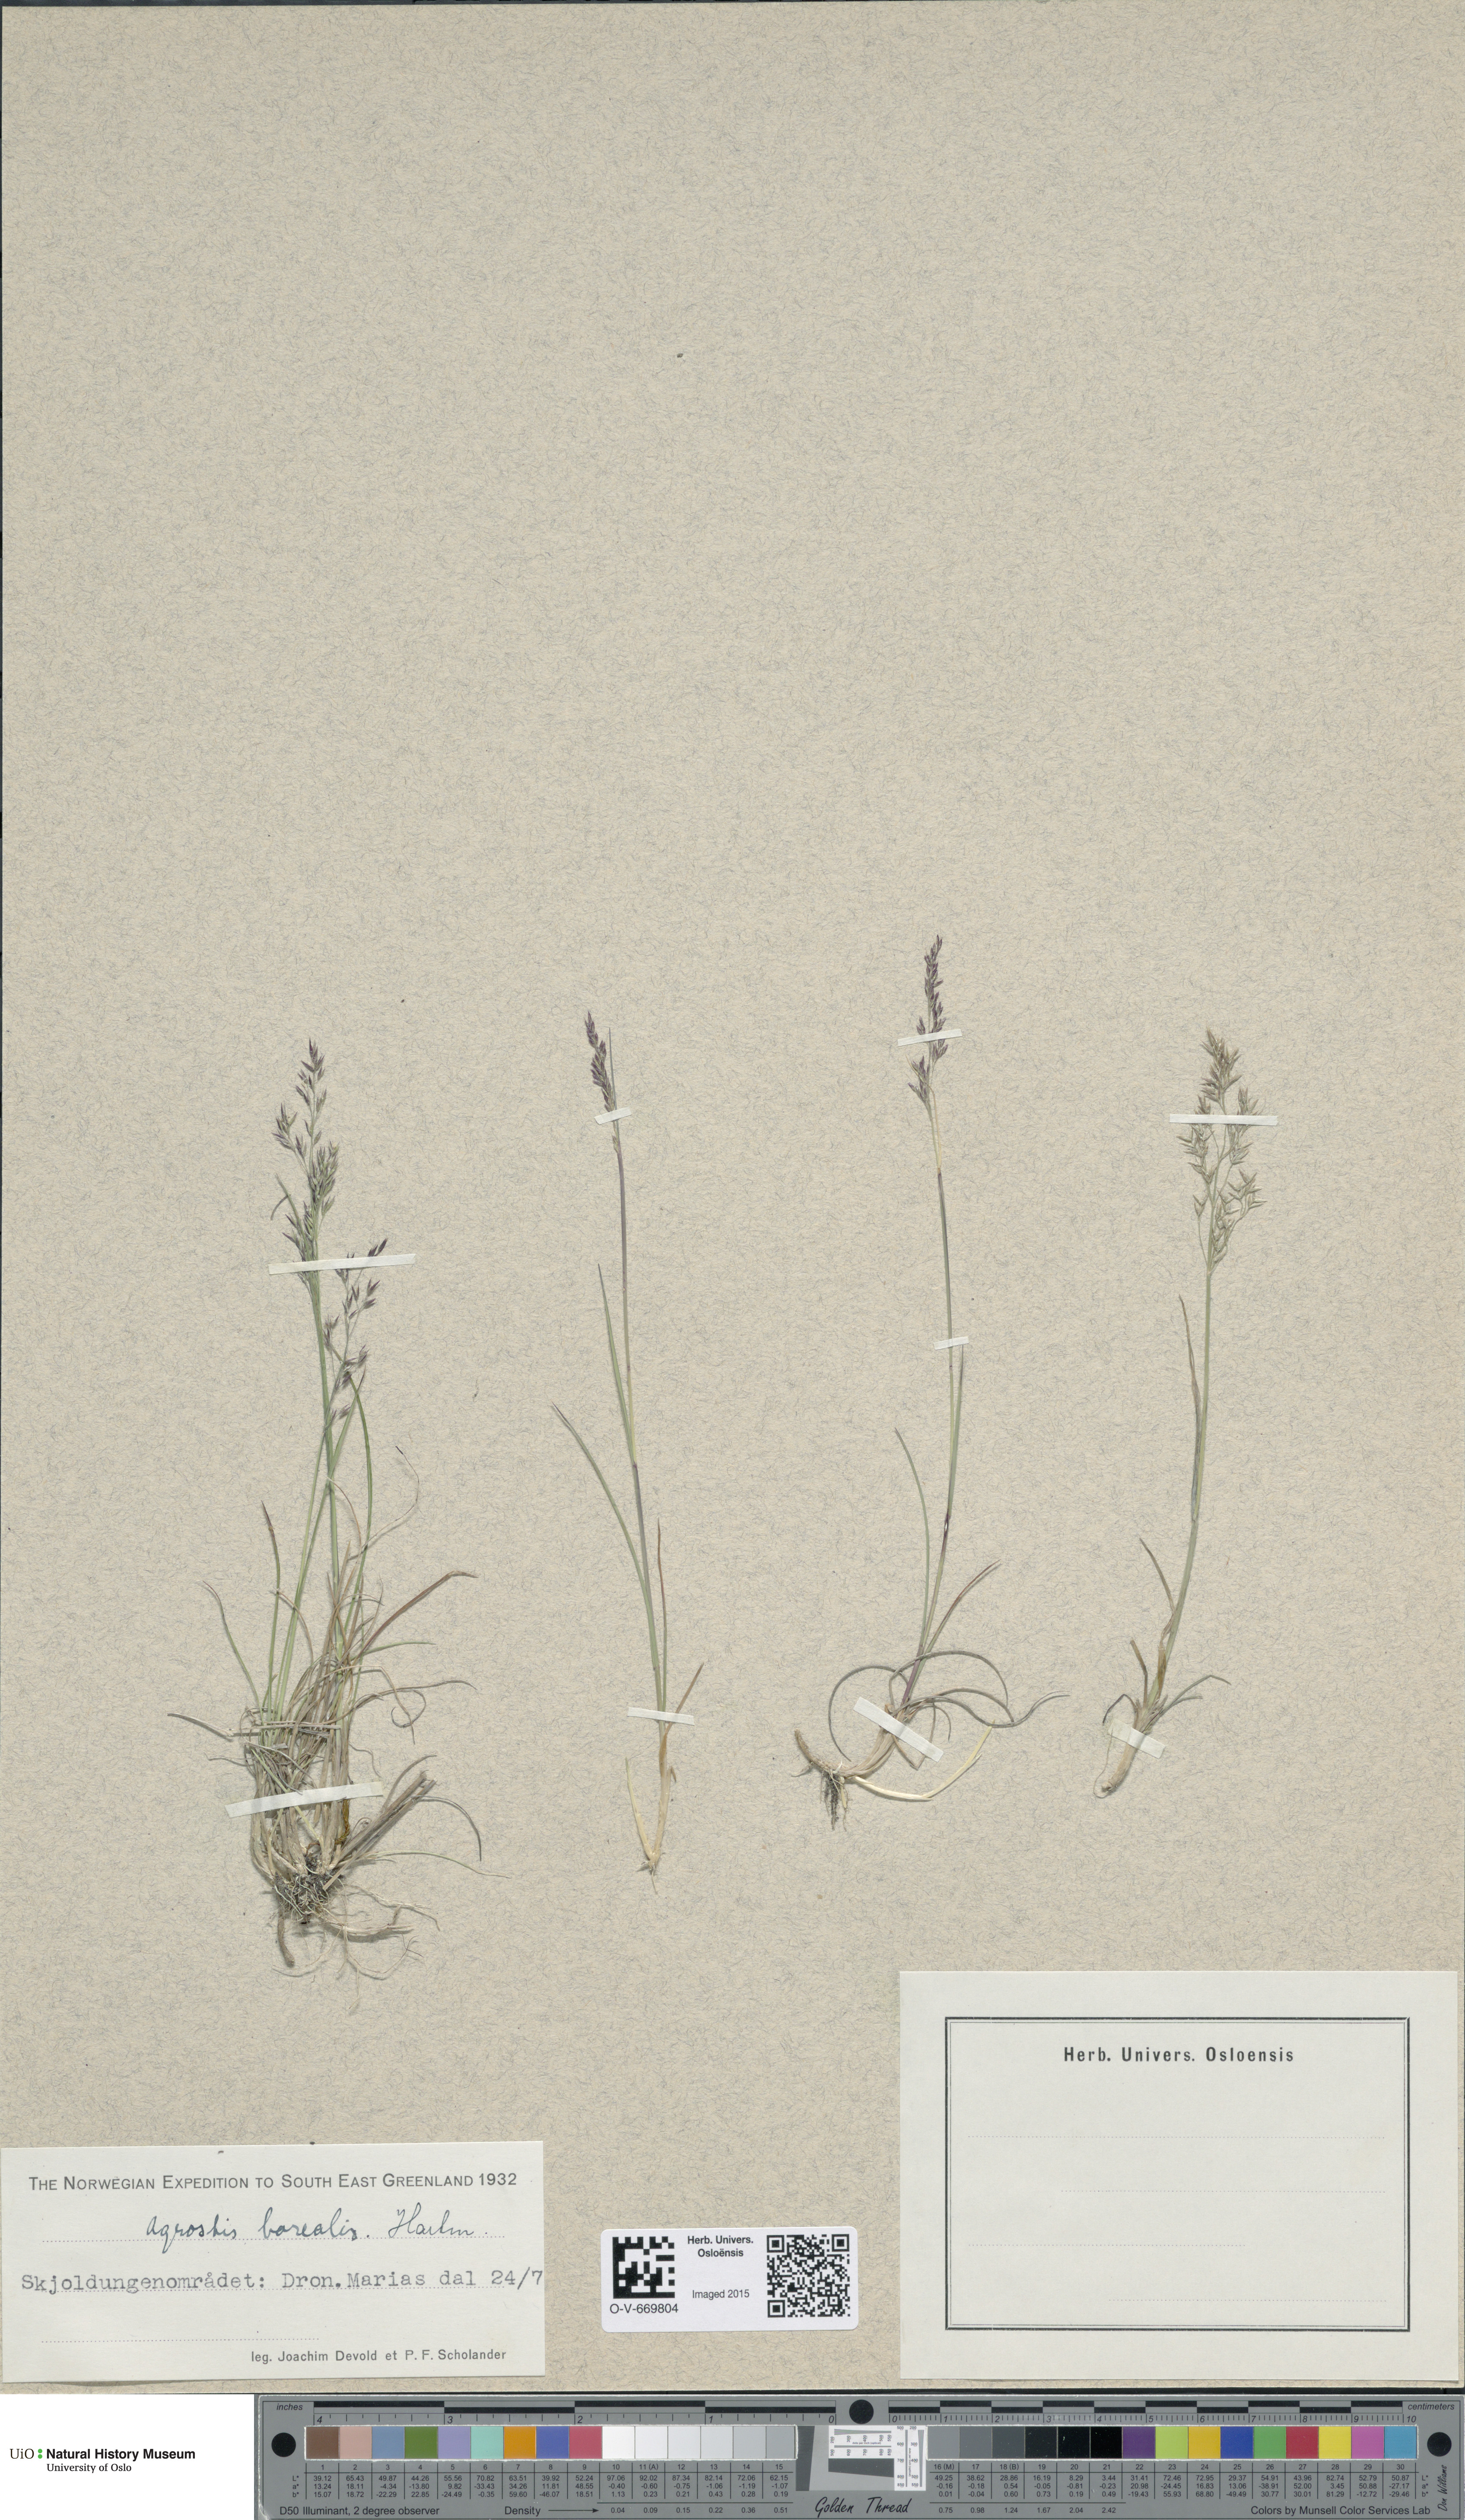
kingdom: Plantae
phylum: Tracheophyta
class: Liliopsida
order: Poales
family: Poaceae
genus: Agrostis
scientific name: Agrostis mertensii
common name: Northern bent
